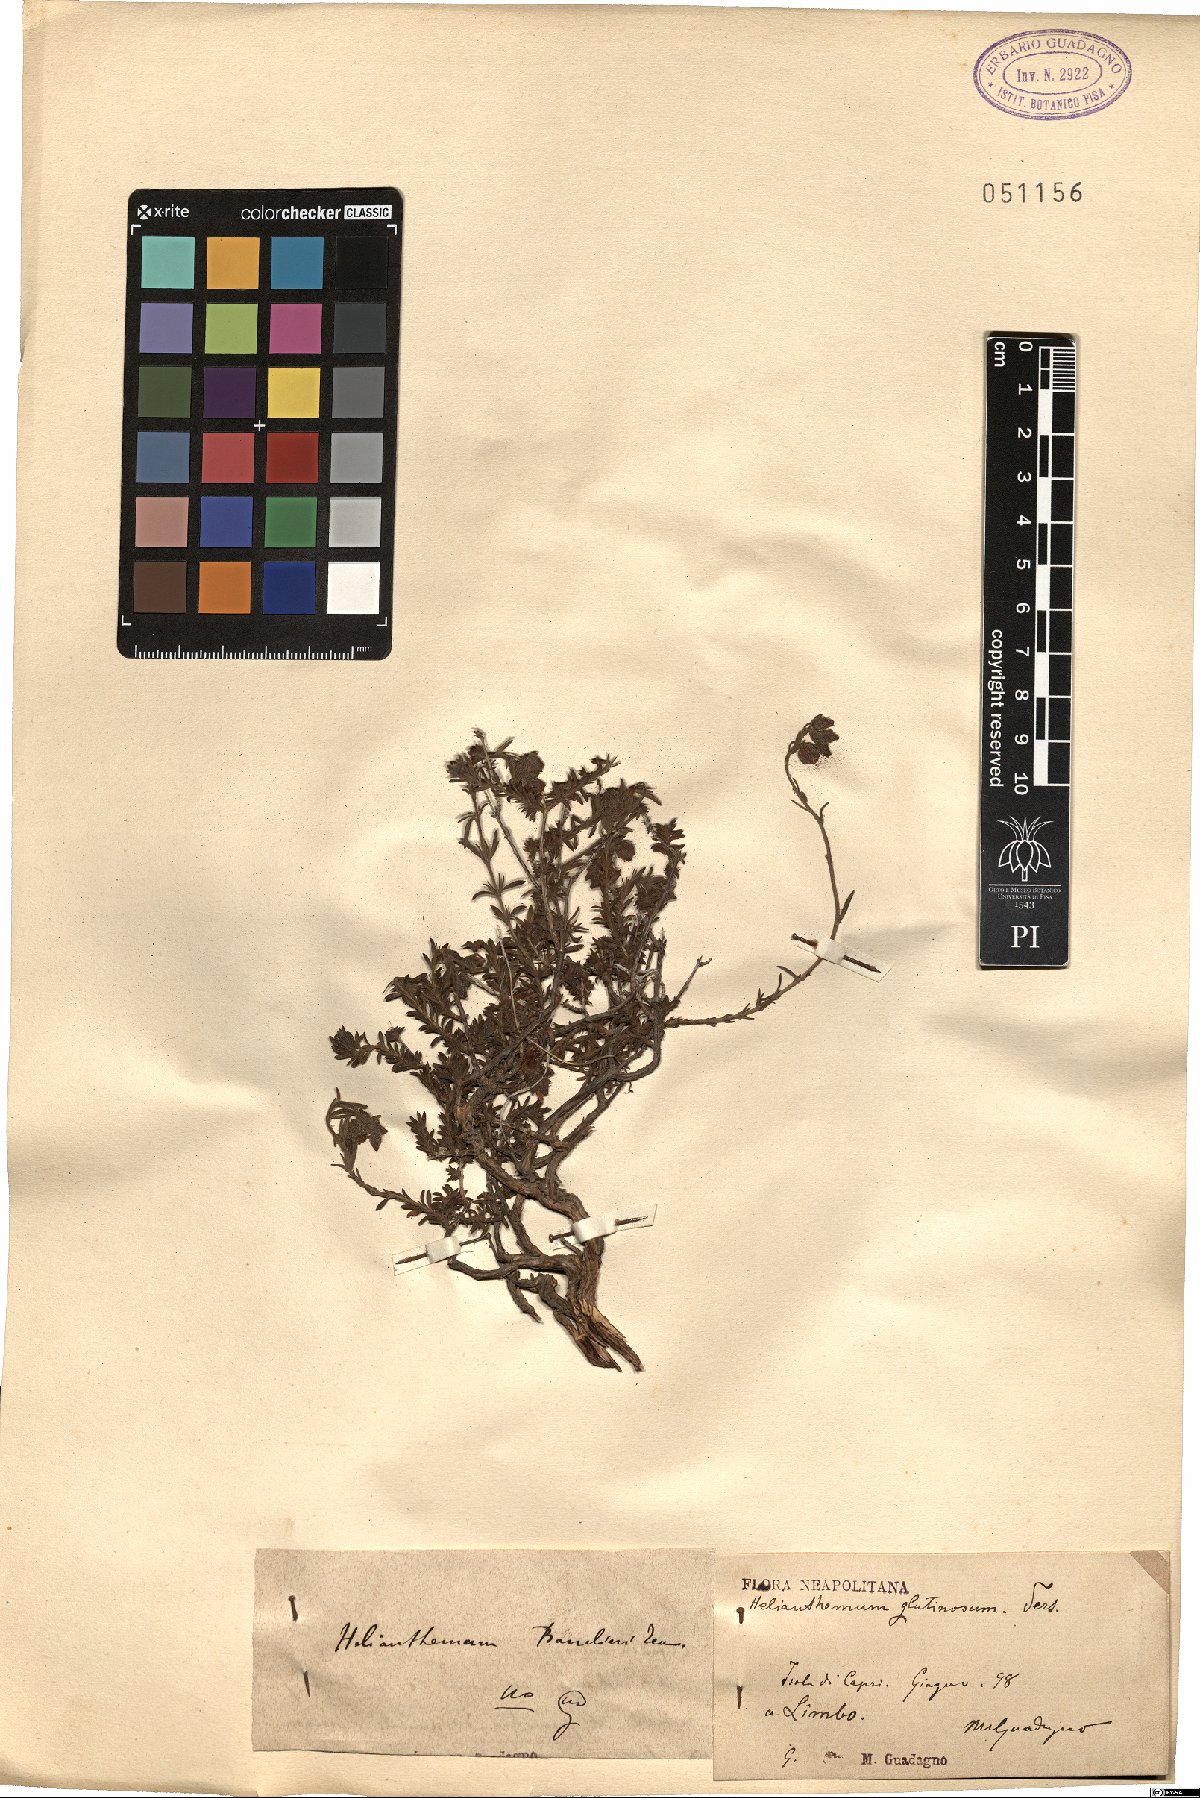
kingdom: Plantae
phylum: Tracheophyta
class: Magnoliopsida
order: Malvales
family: Cistaceae
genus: Fumana
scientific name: Fumana thymifolia
